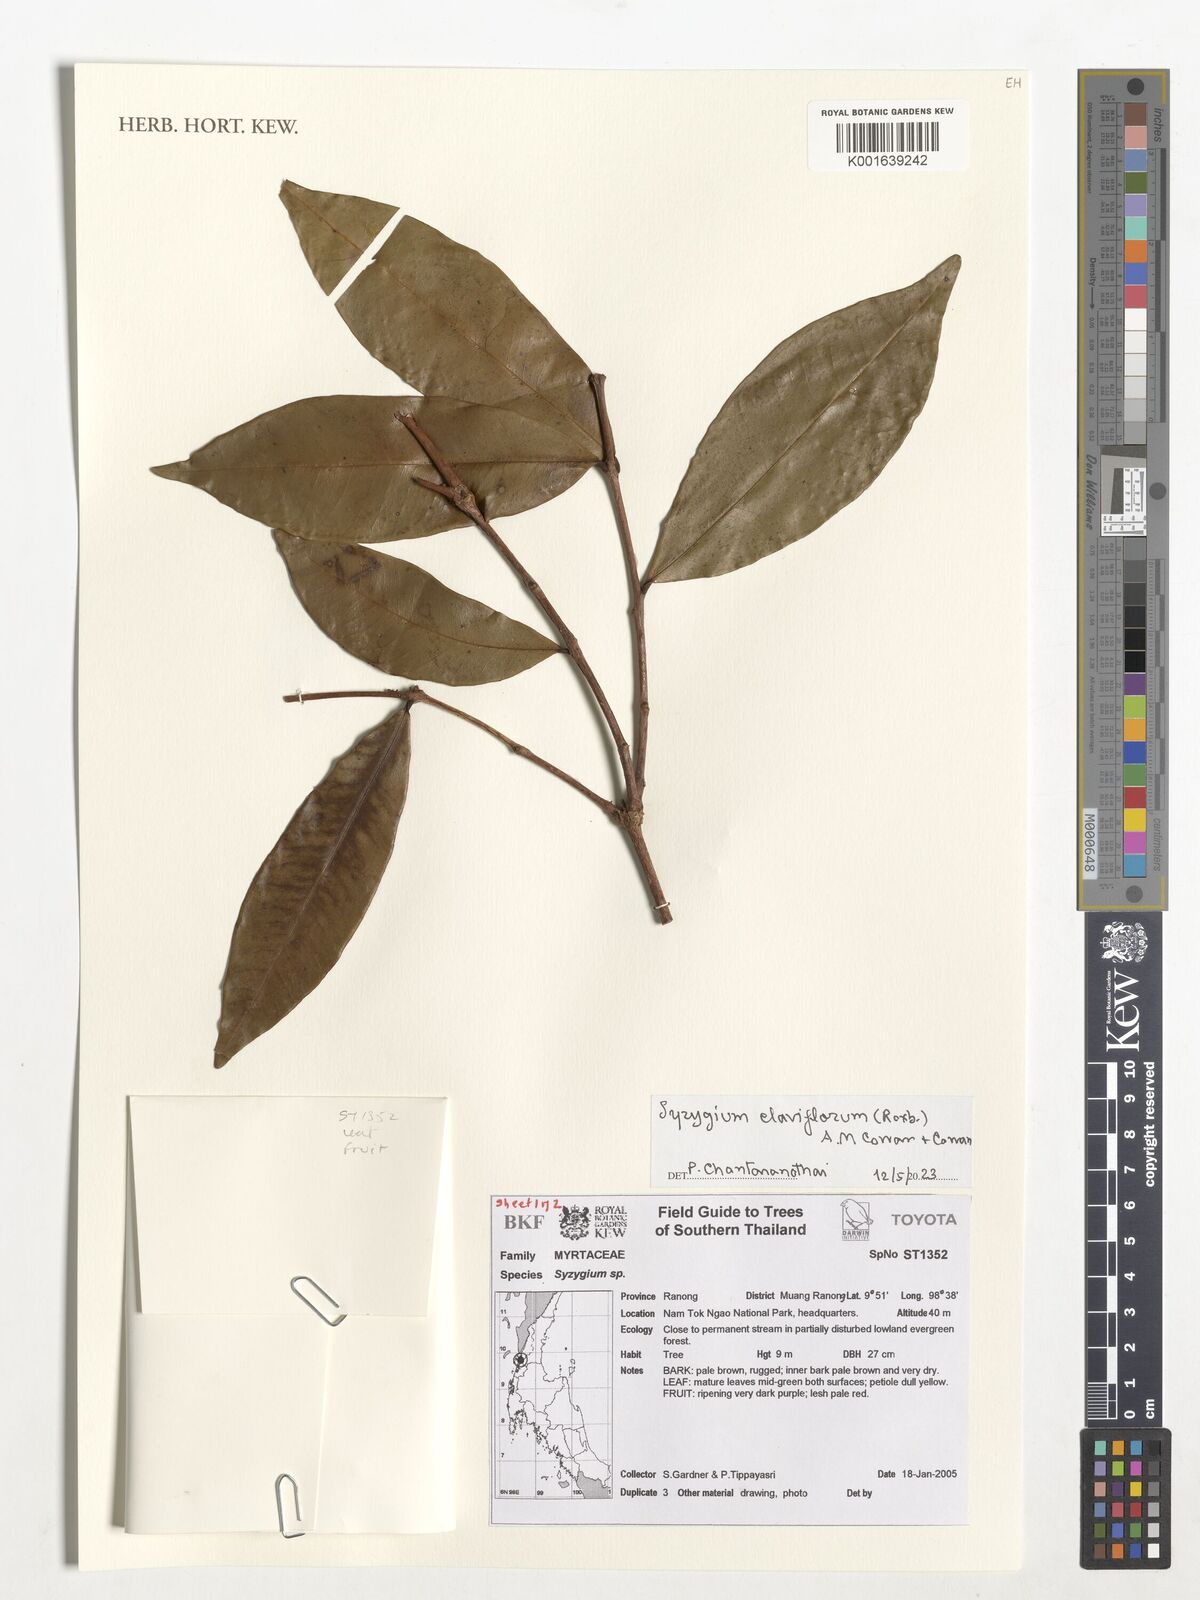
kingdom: Plantae
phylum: Tracheophyta
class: Magnoliopsida
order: Myrtales
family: Myrtaceae
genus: Syzygium
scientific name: Syzygium claviflorum
